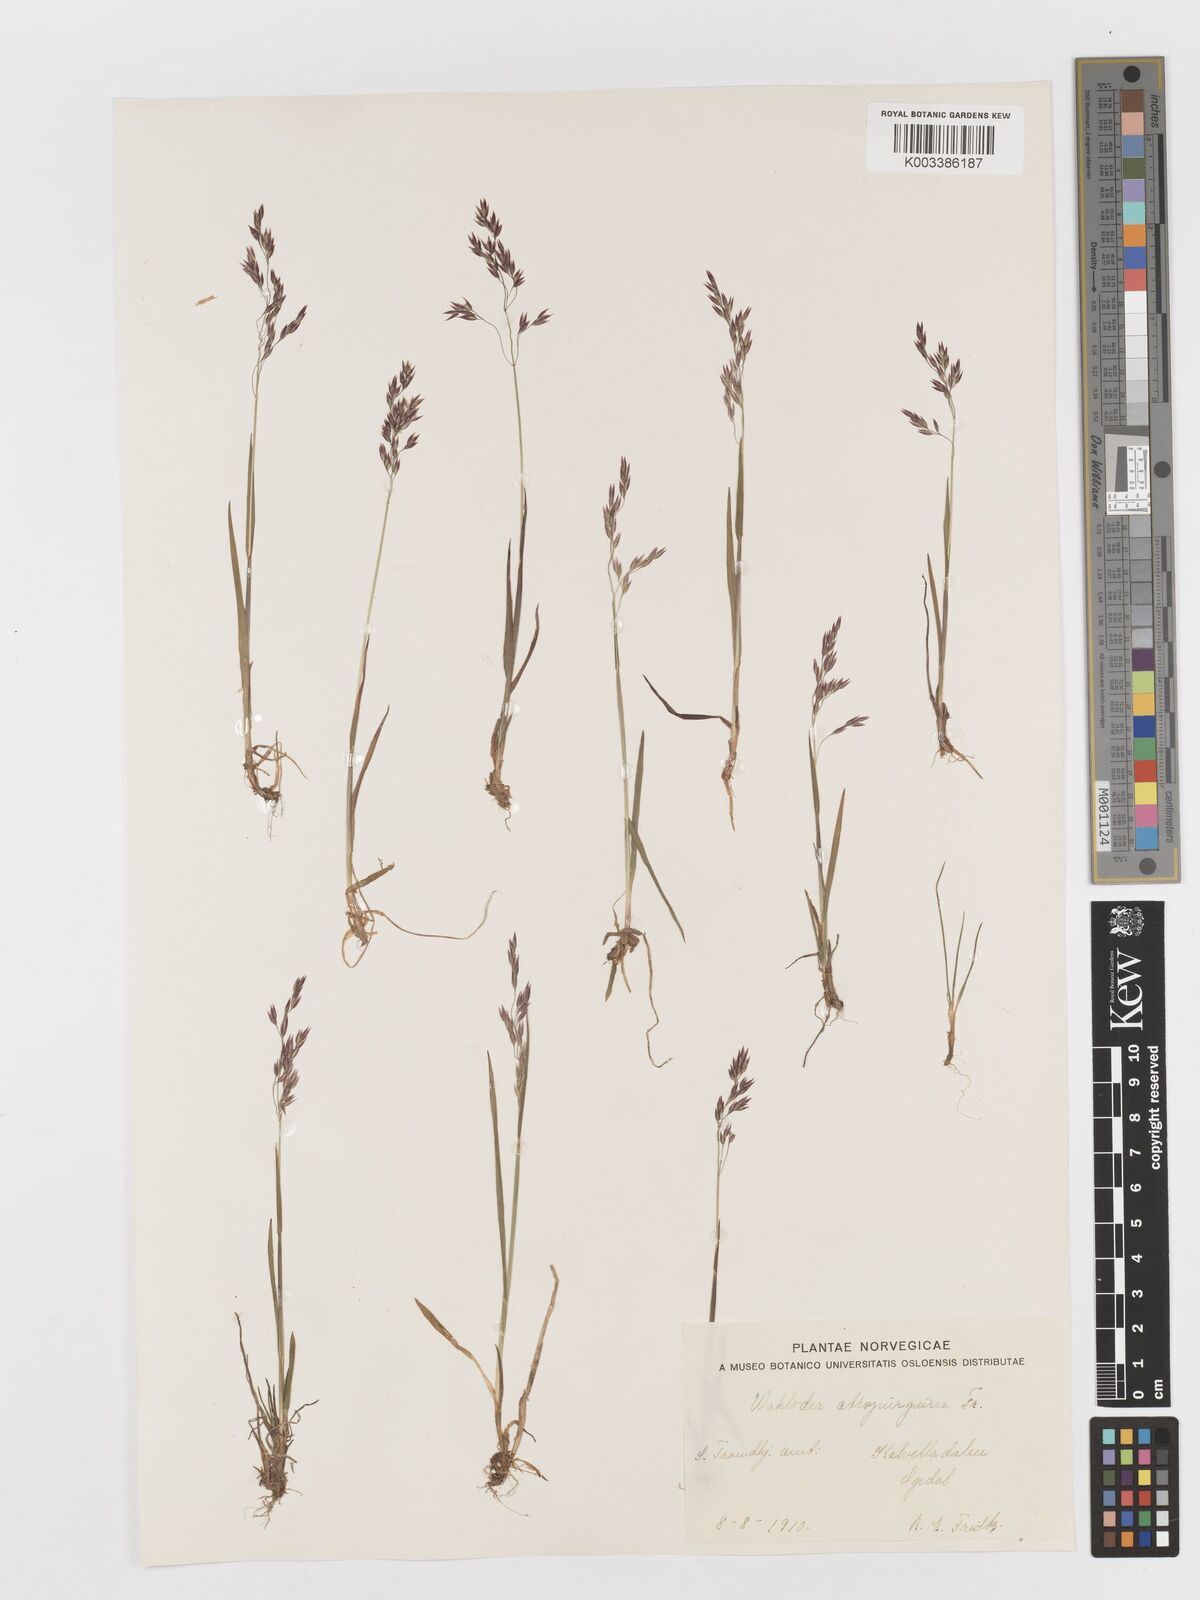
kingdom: Plantae
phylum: Tracheophyta
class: Liliopsida
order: Poales
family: Poaceae
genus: Vahlodea
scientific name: Vahlodea atropurpurea
